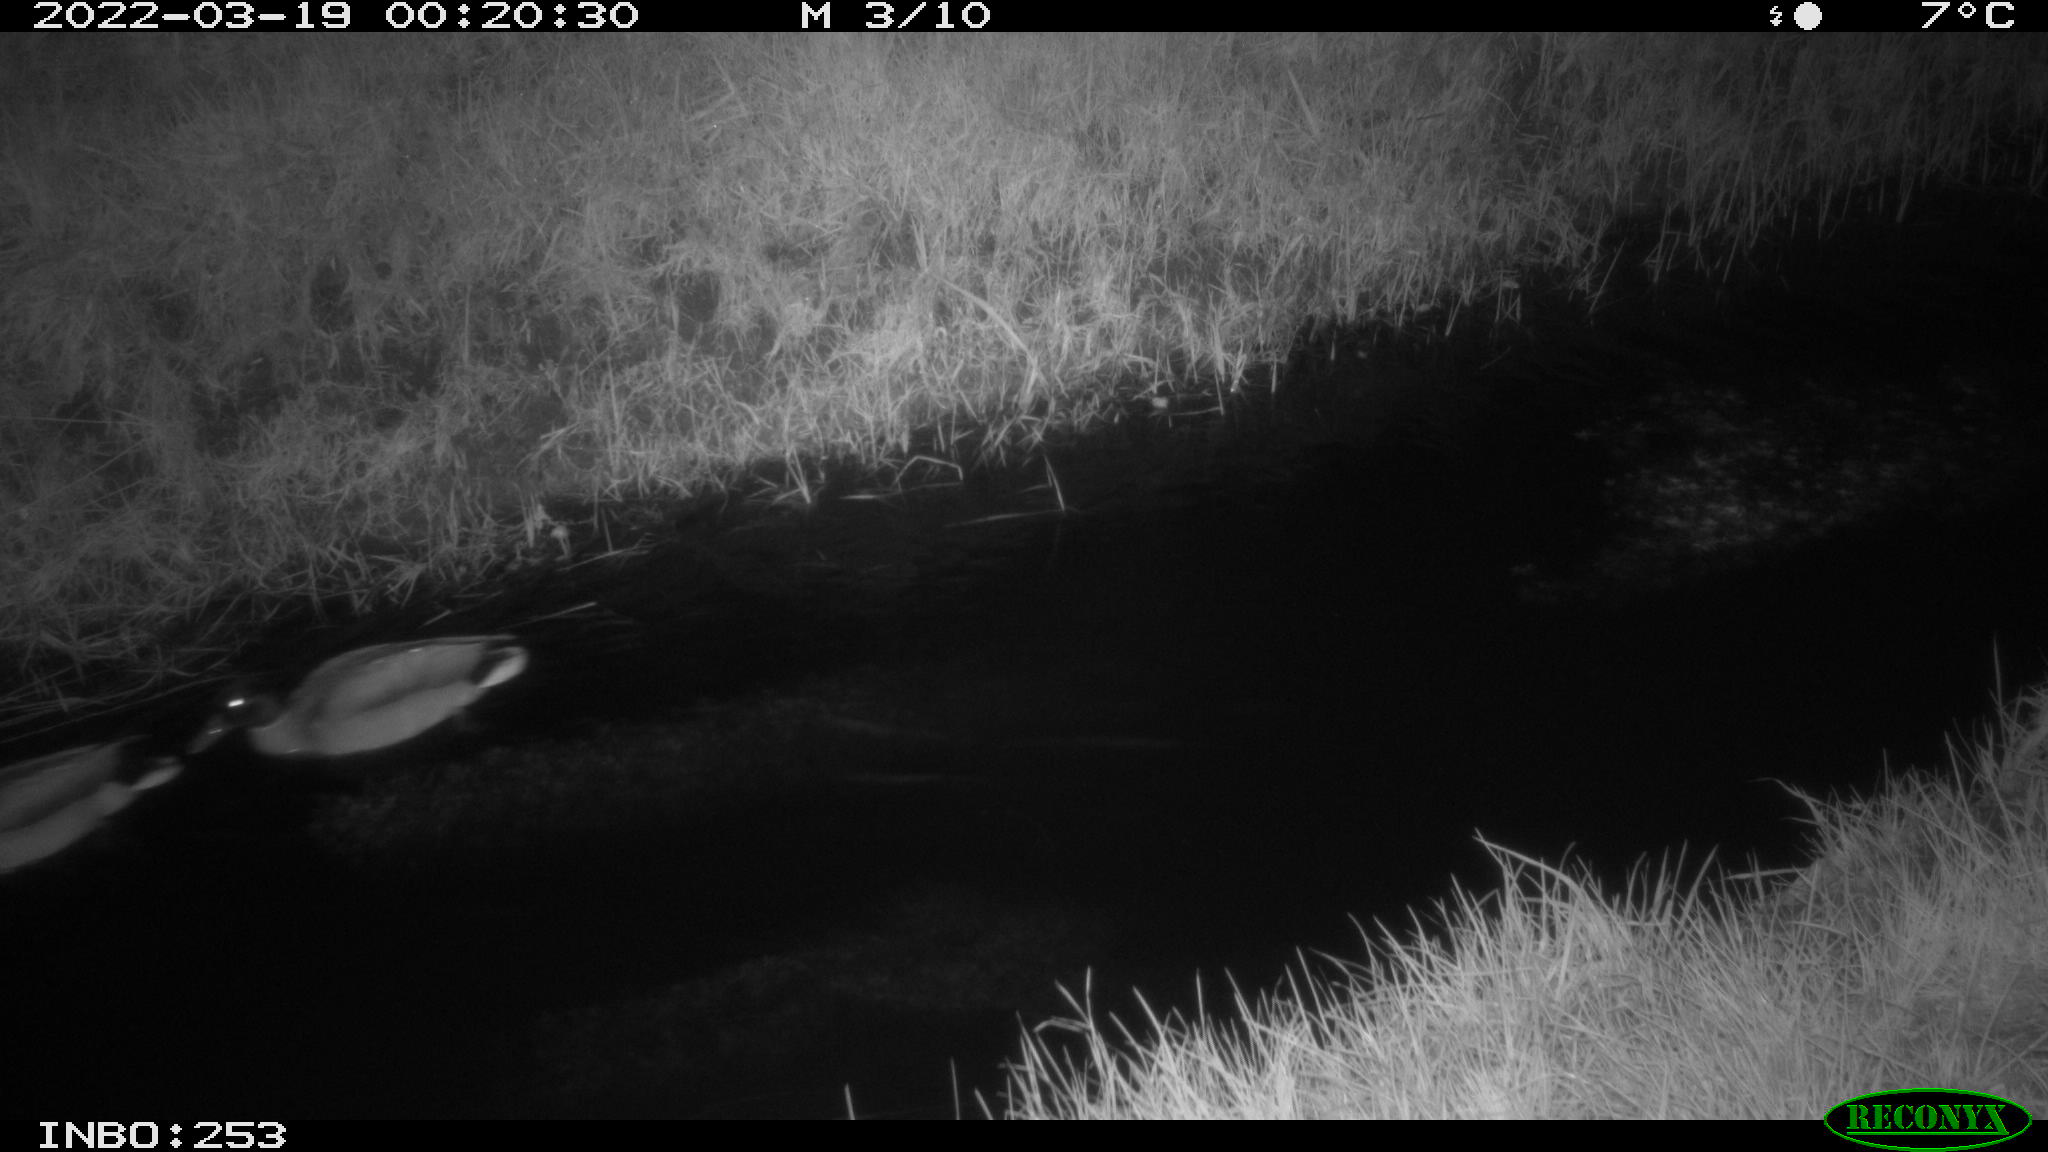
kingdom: Animalia
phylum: Chordata
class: Aves
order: Anseriformes
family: Anatidae
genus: Anas
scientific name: Anas platyrhynchos
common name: Mallard
